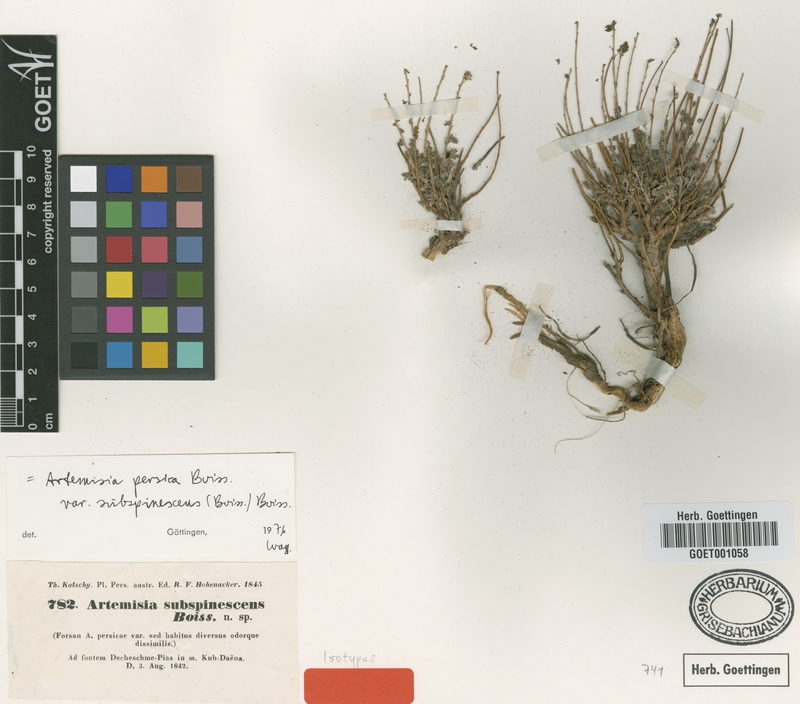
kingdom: Plantae
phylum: Tracheophyta
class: Magnoliopsida
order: Asterales
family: Asteraceae
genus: Artemisia
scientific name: Artemisia persica
